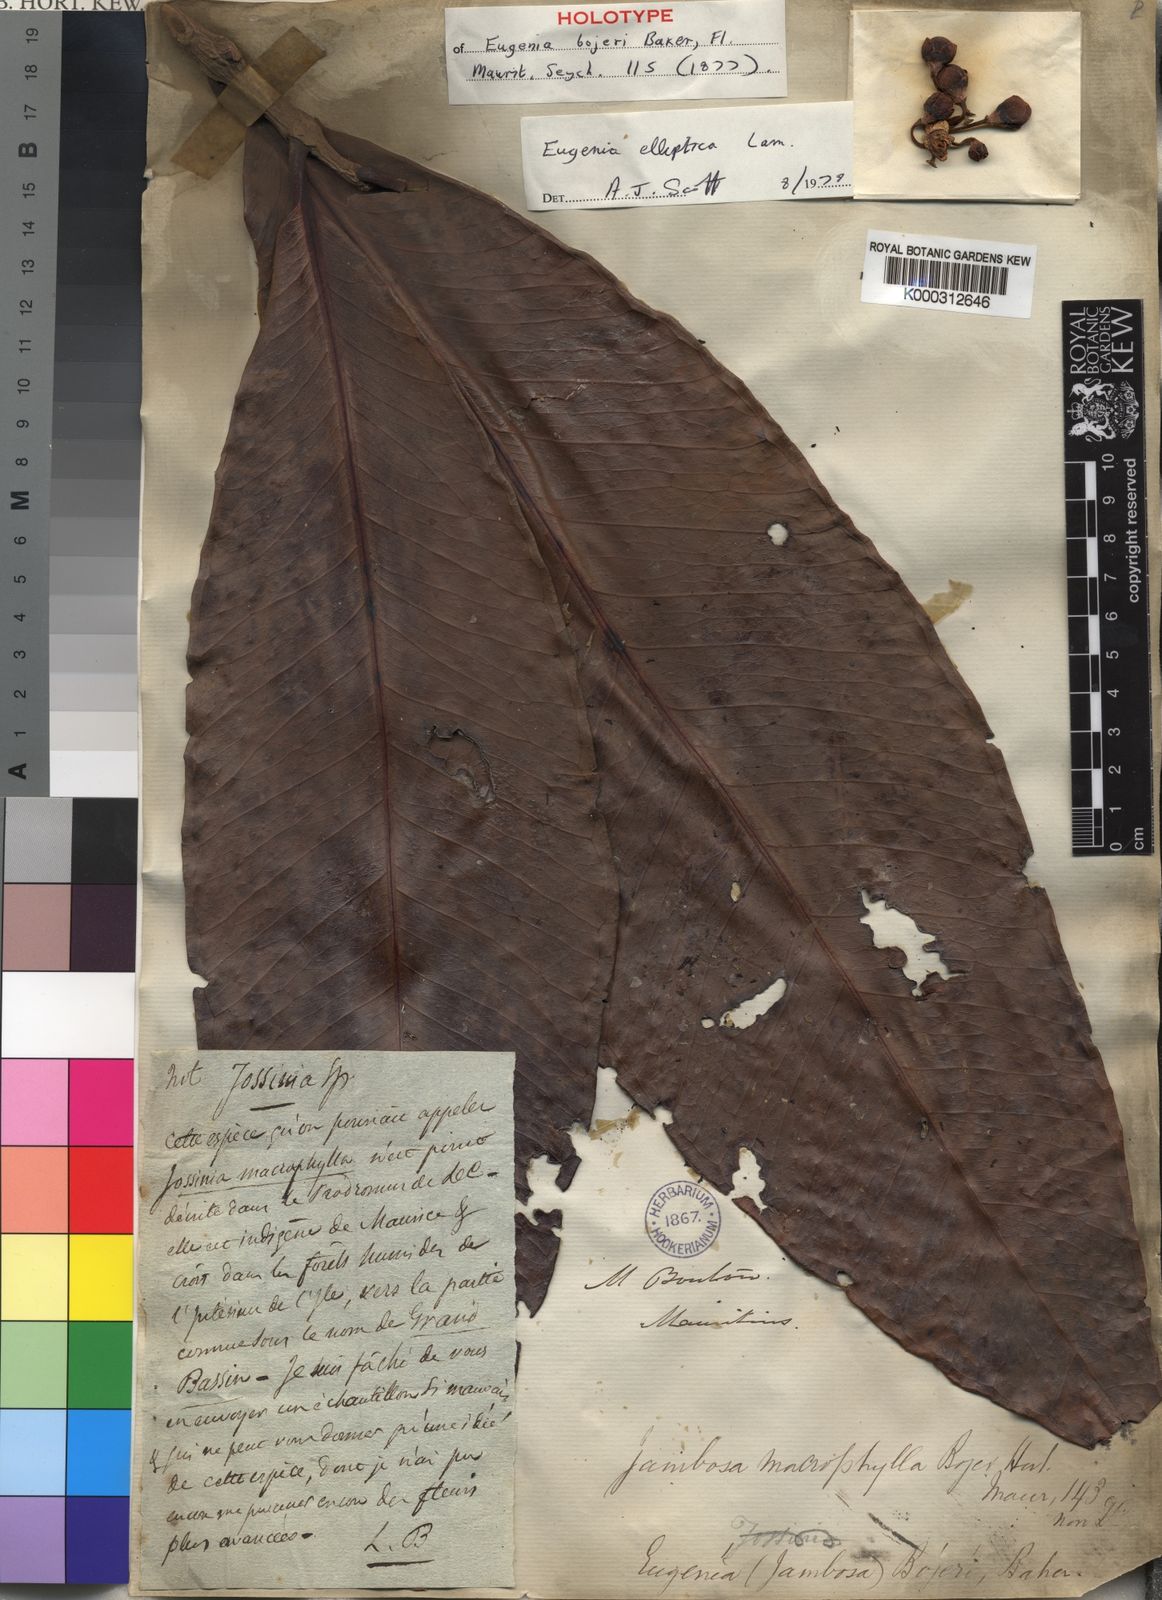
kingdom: Plantae
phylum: Tracheophyta
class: Magnoliopsida
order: Myrtales
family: Myrtaceae
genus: Eugenia
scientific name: Eugenia elliptica
